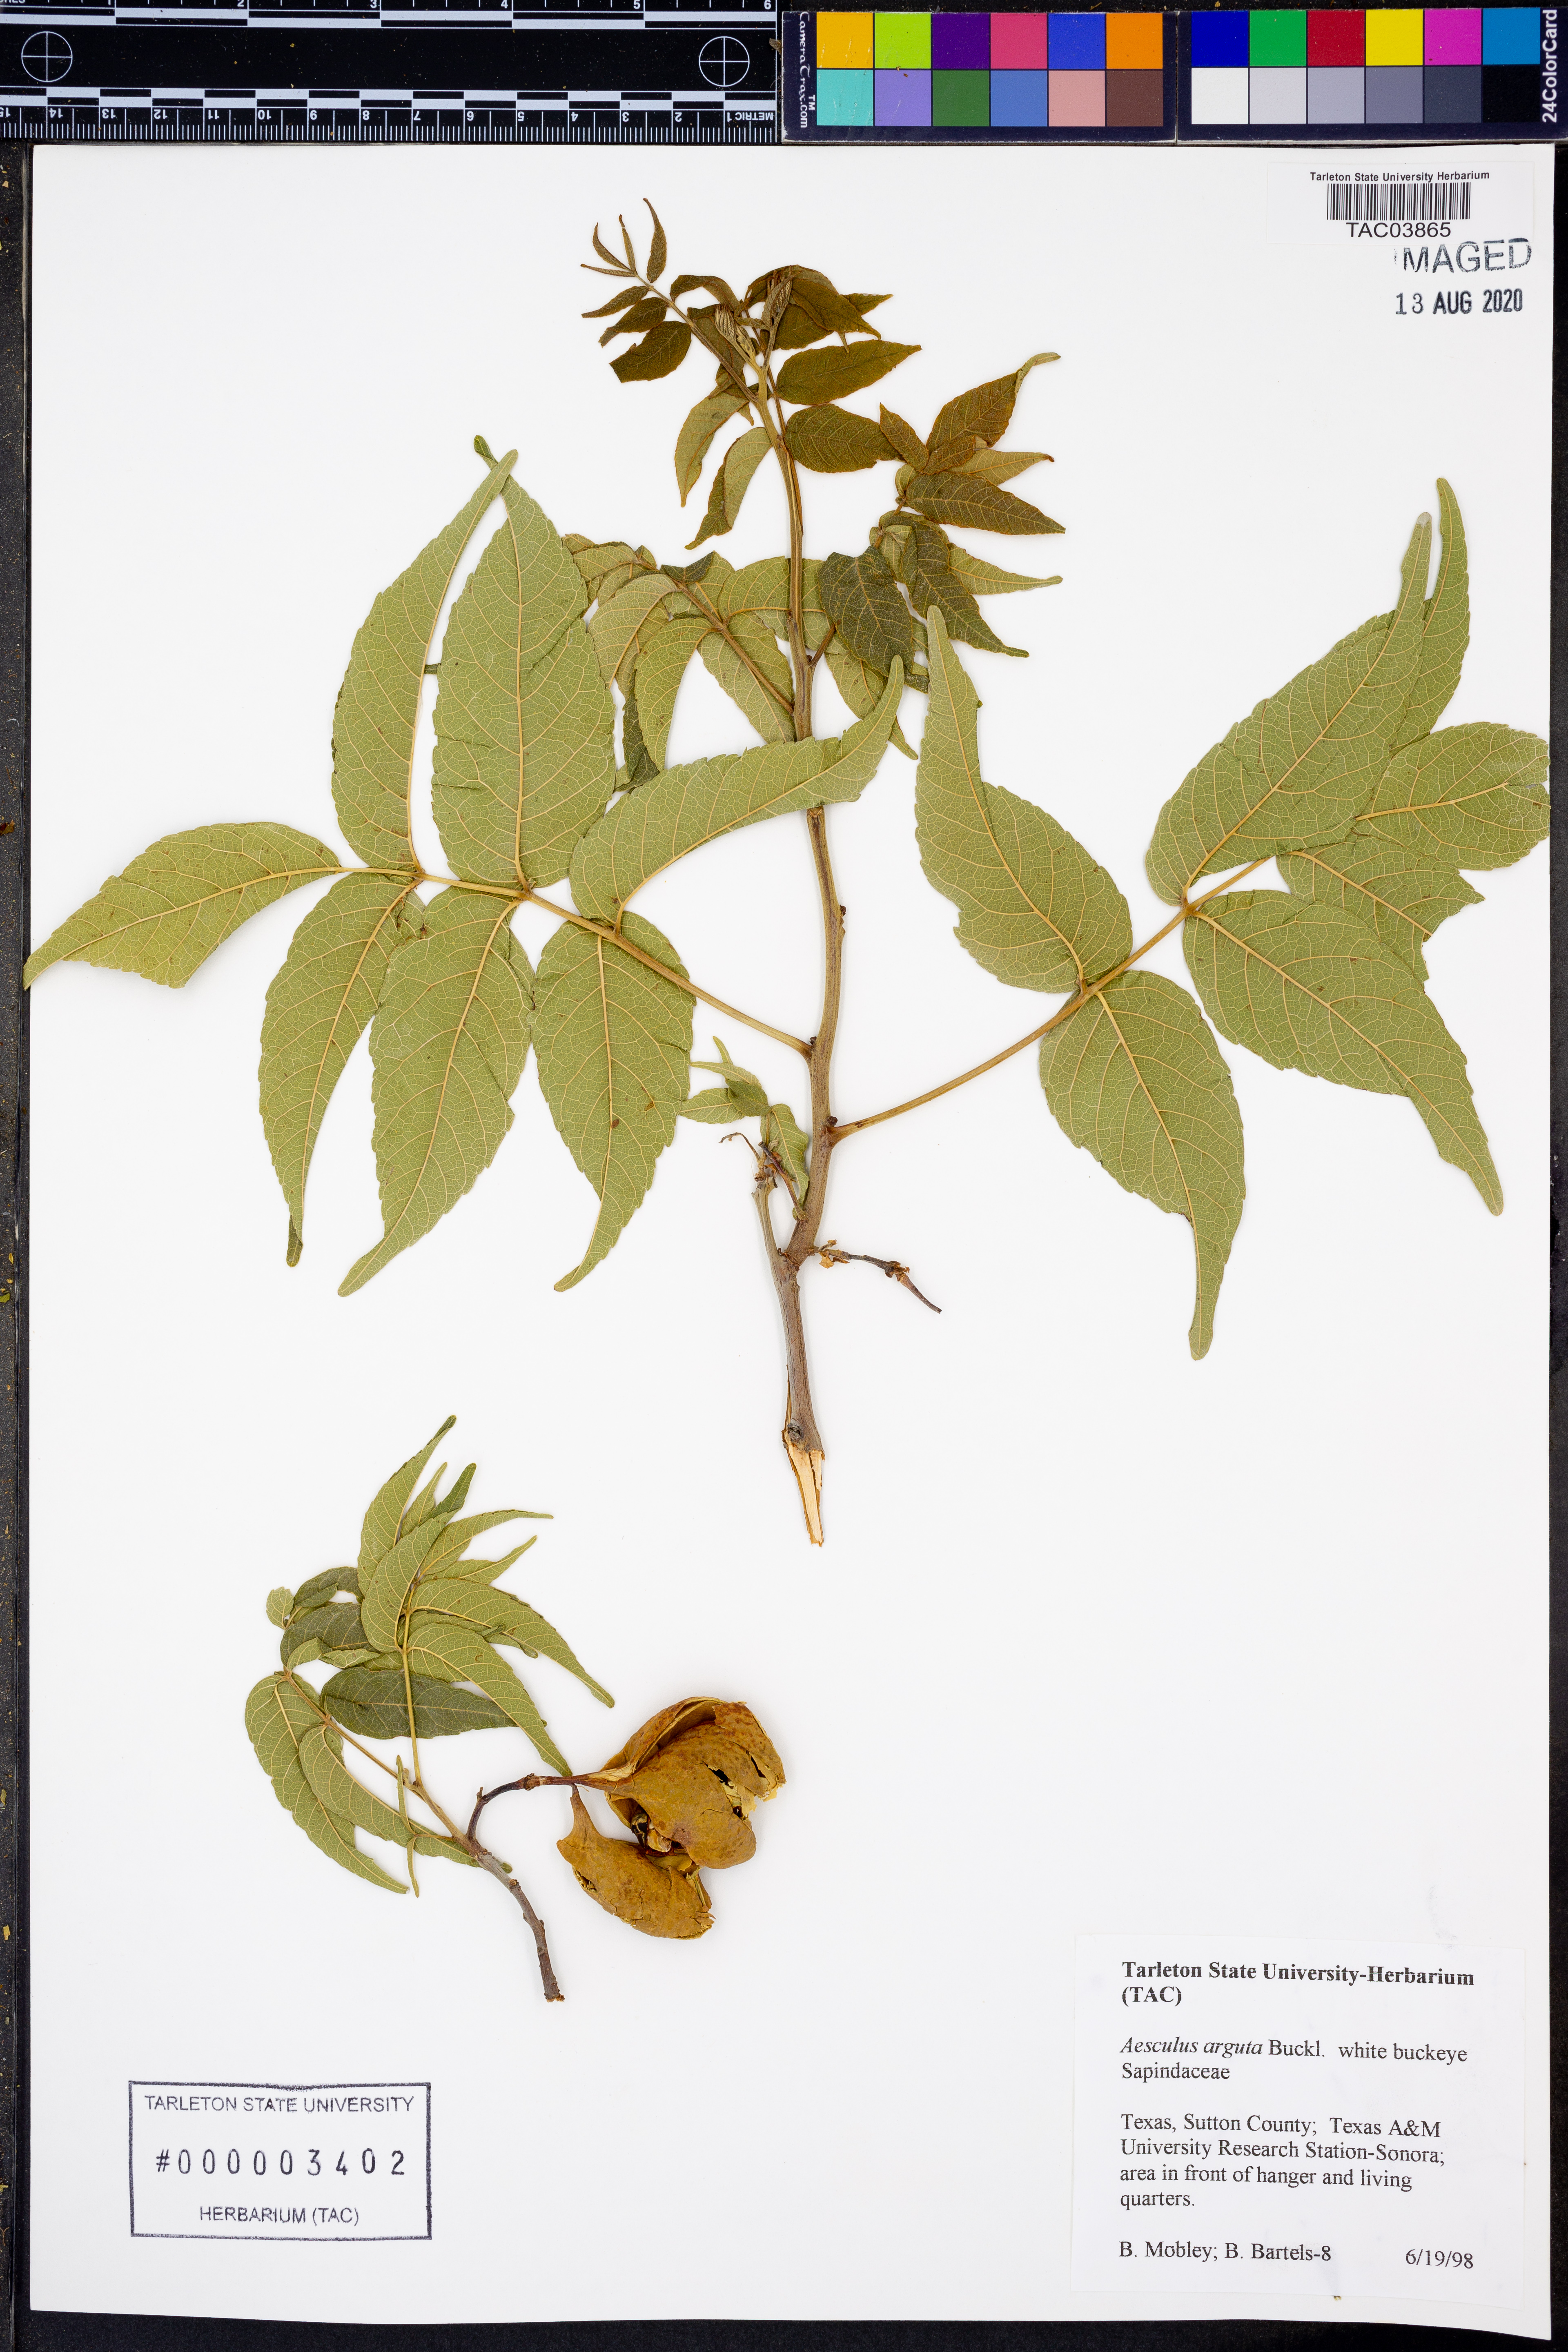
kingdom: Plantae
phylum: Tracheophyta
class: Magnoliopsida
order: Sapindales
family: Sapindaceae
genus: Aesculus
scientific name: Aesculus glabra
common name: Ohio buckeye
